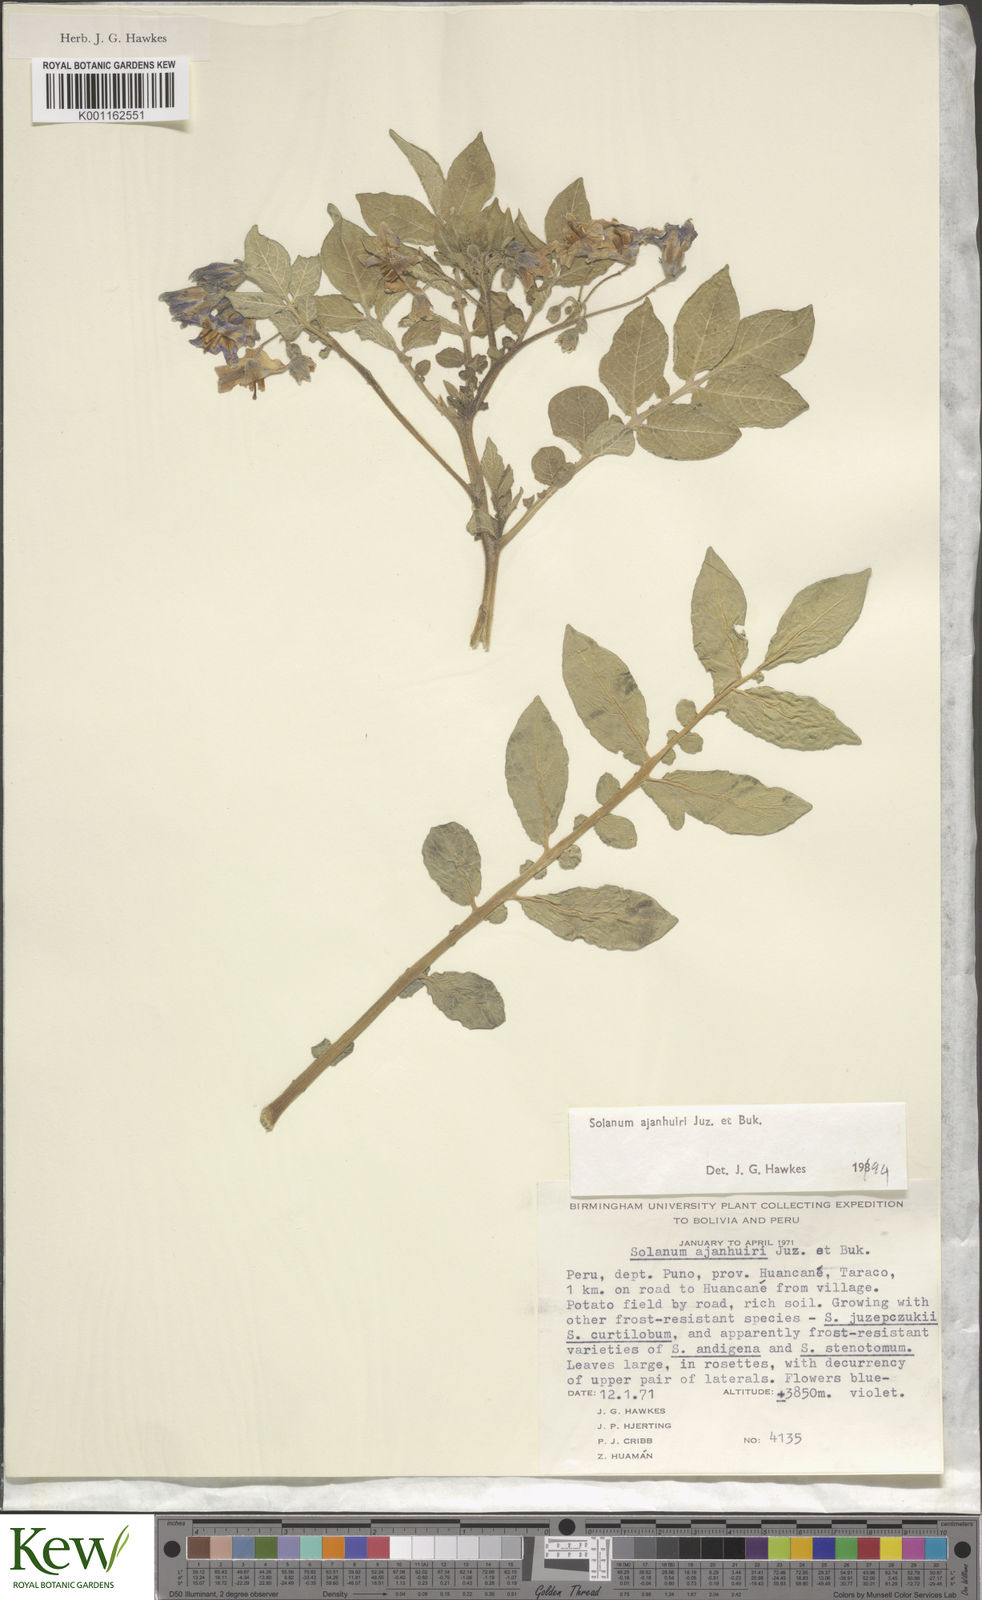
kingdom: Plantae
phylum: Tracheophyta
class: Magnoliopsida
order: Solanales
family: Solanaceae
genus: Solanum
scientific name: Solanum ajanhuiri
